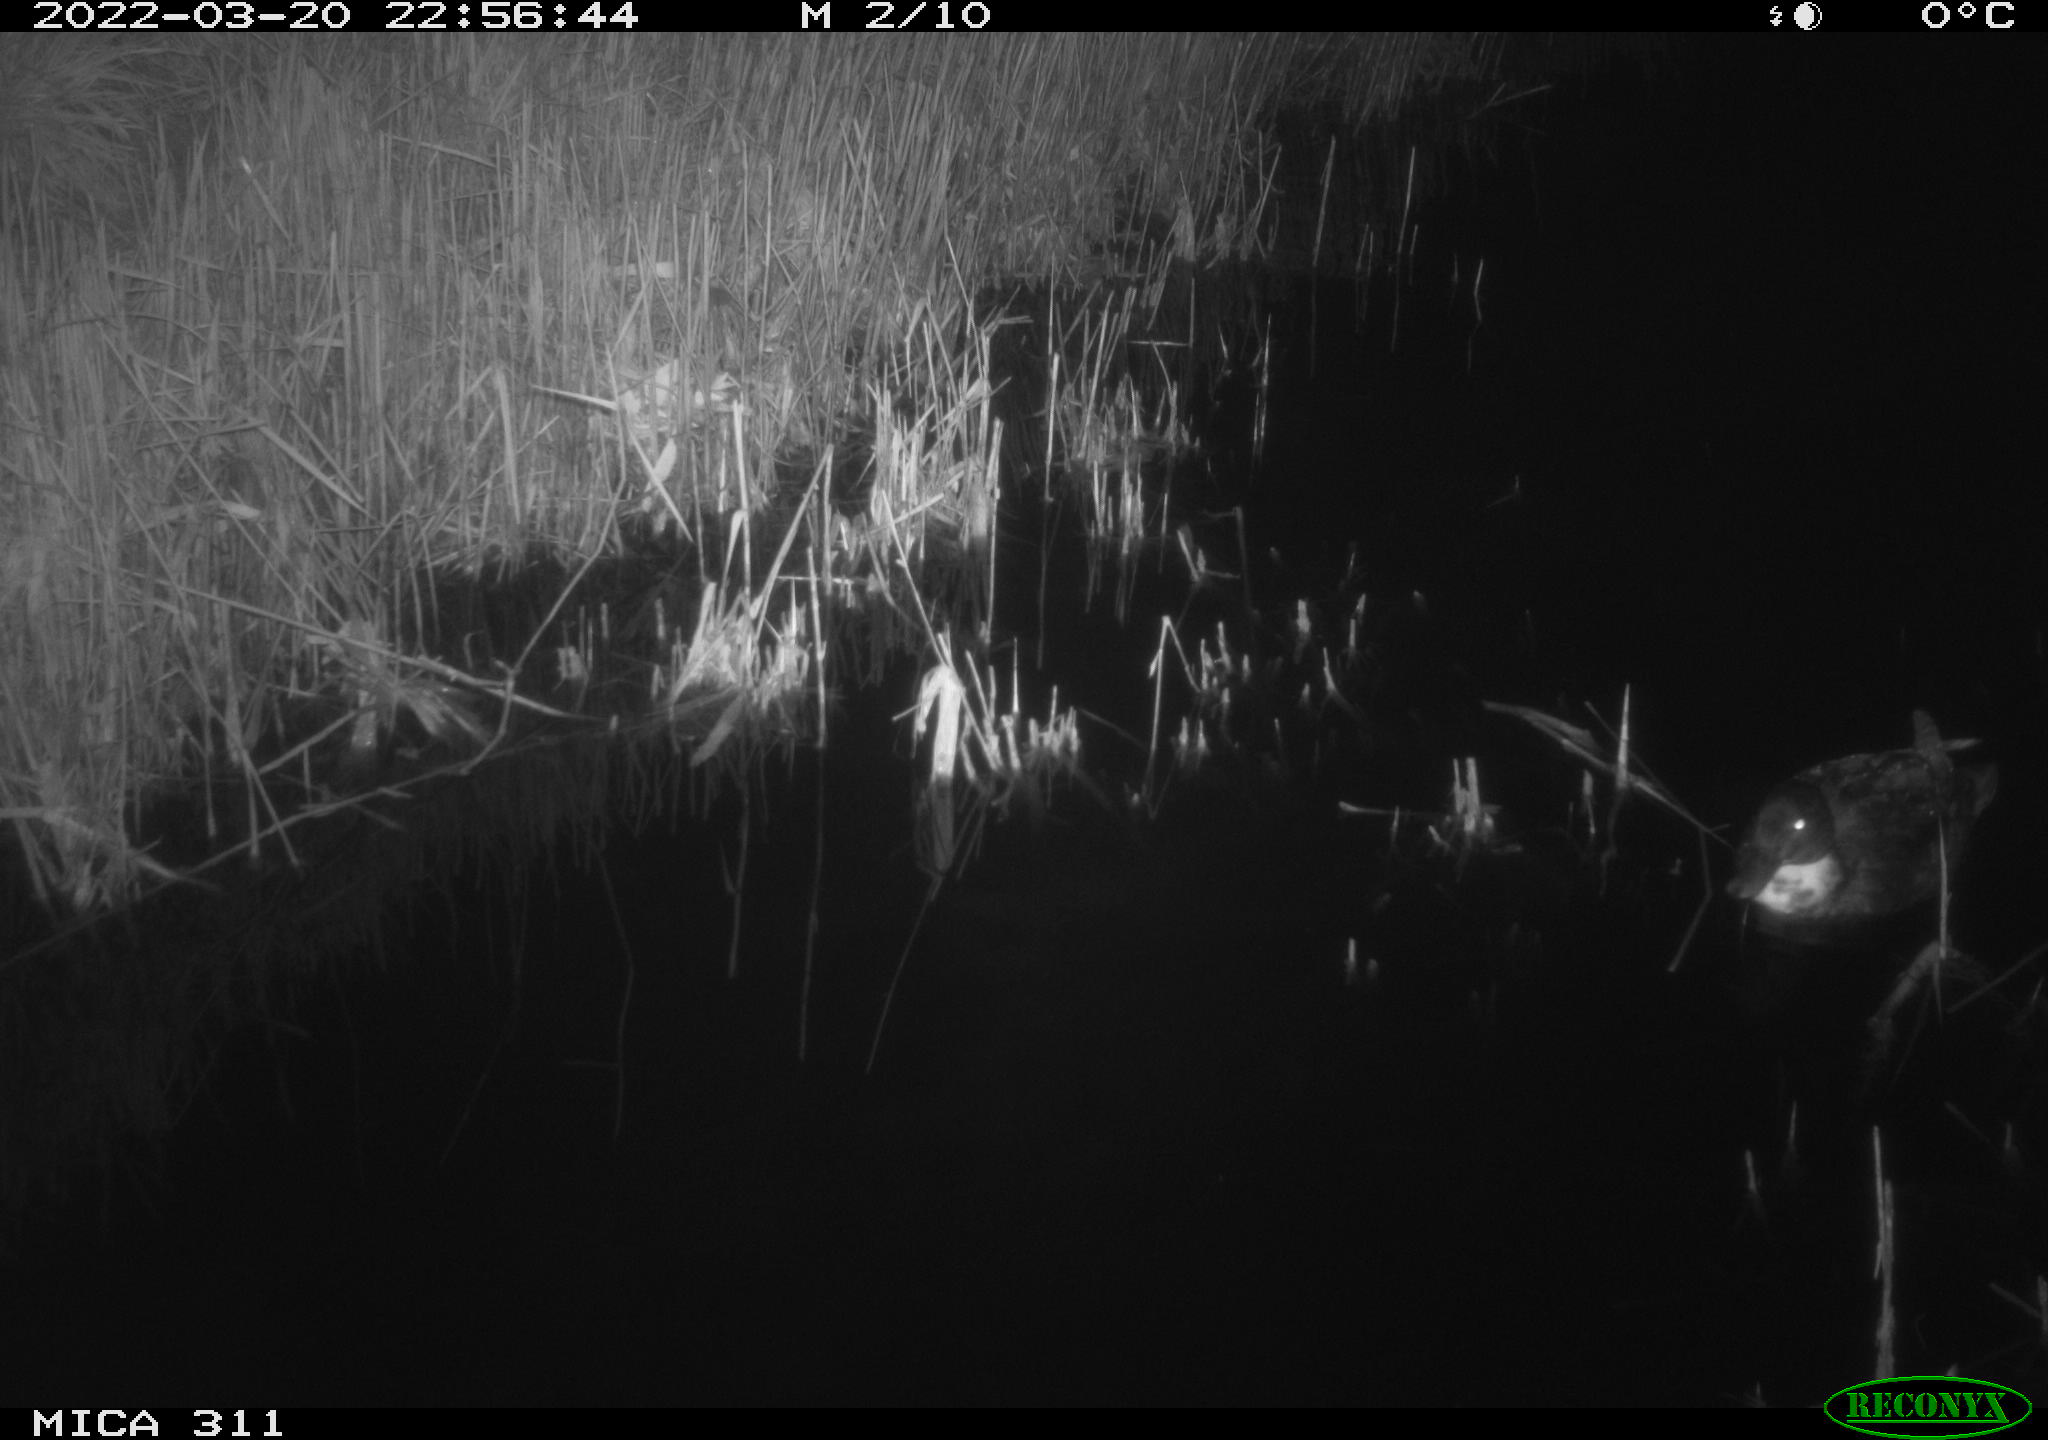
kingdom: Animalia
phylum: Chordata
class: Aves
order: Anseriformes
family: Anatidae
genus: Anas
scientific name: Anas platyrhynchos
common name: Mallard
